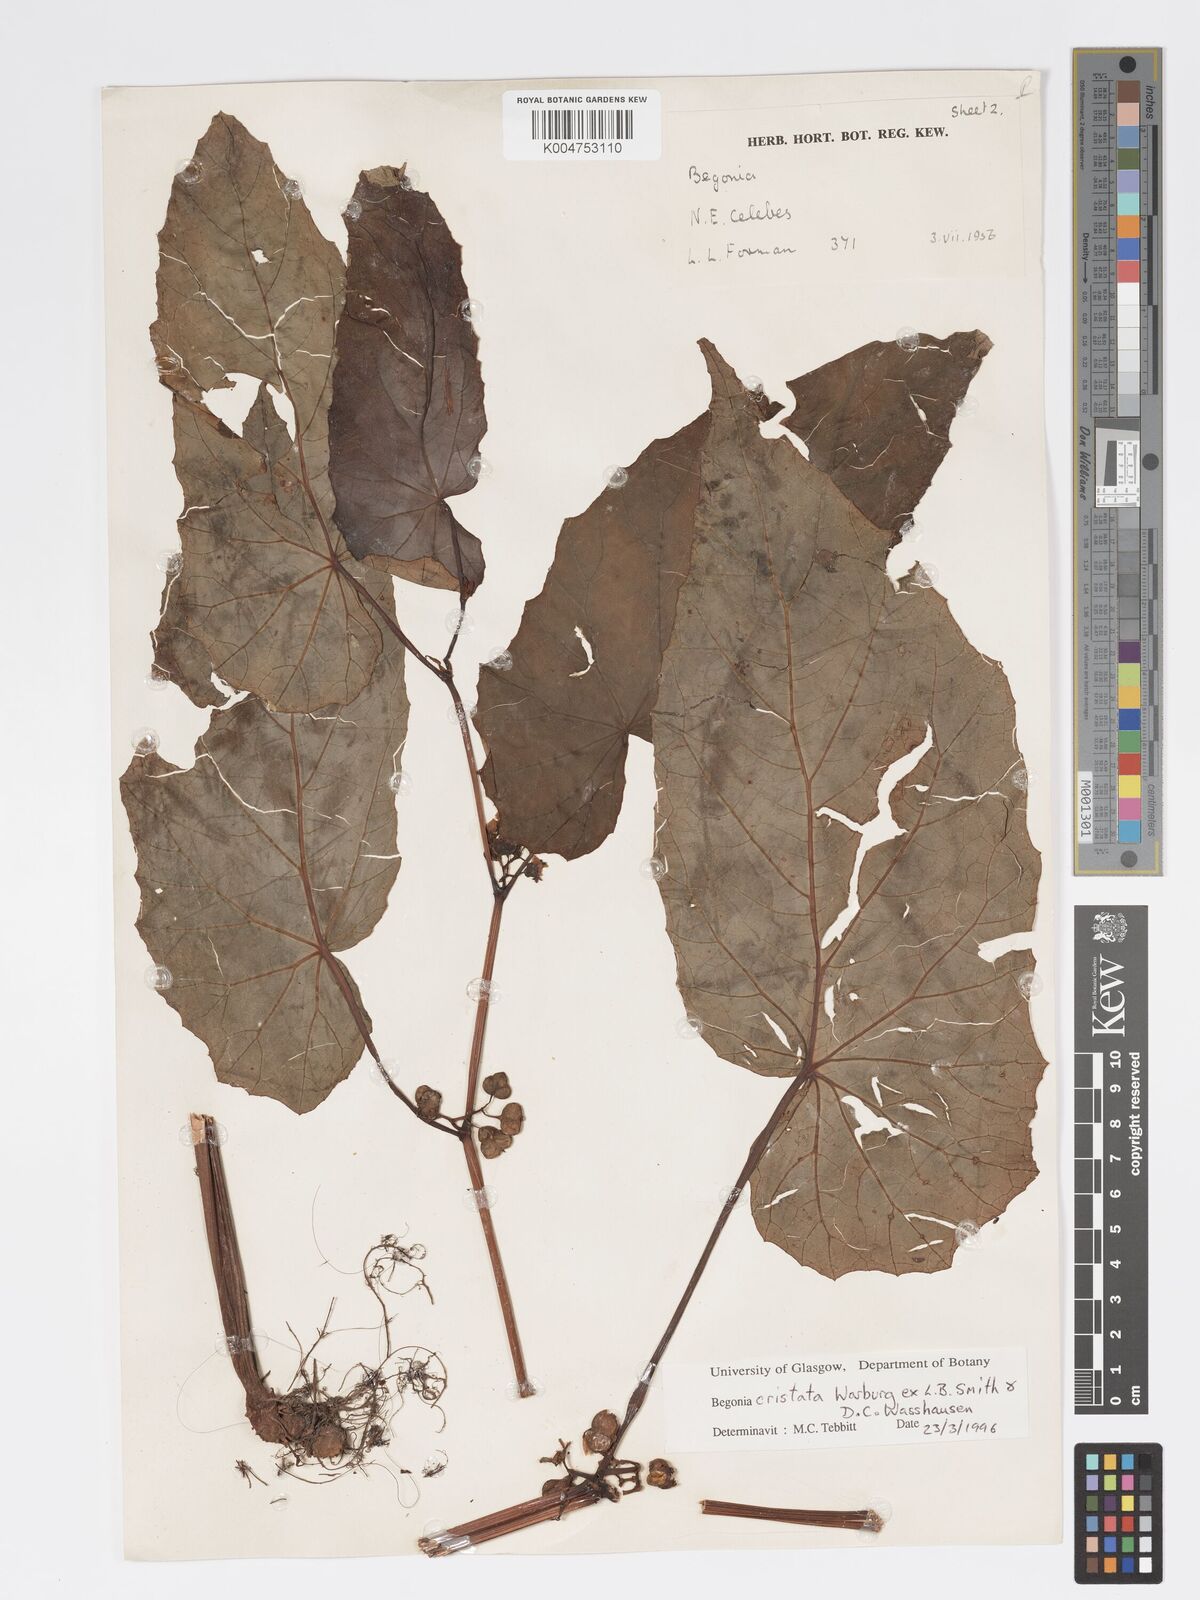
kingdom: Plantae
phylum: Tracheophyta
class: Magnoliopsida
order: Cucurbitales
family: Begoniaceae
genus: Begonia
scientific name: Begonia
